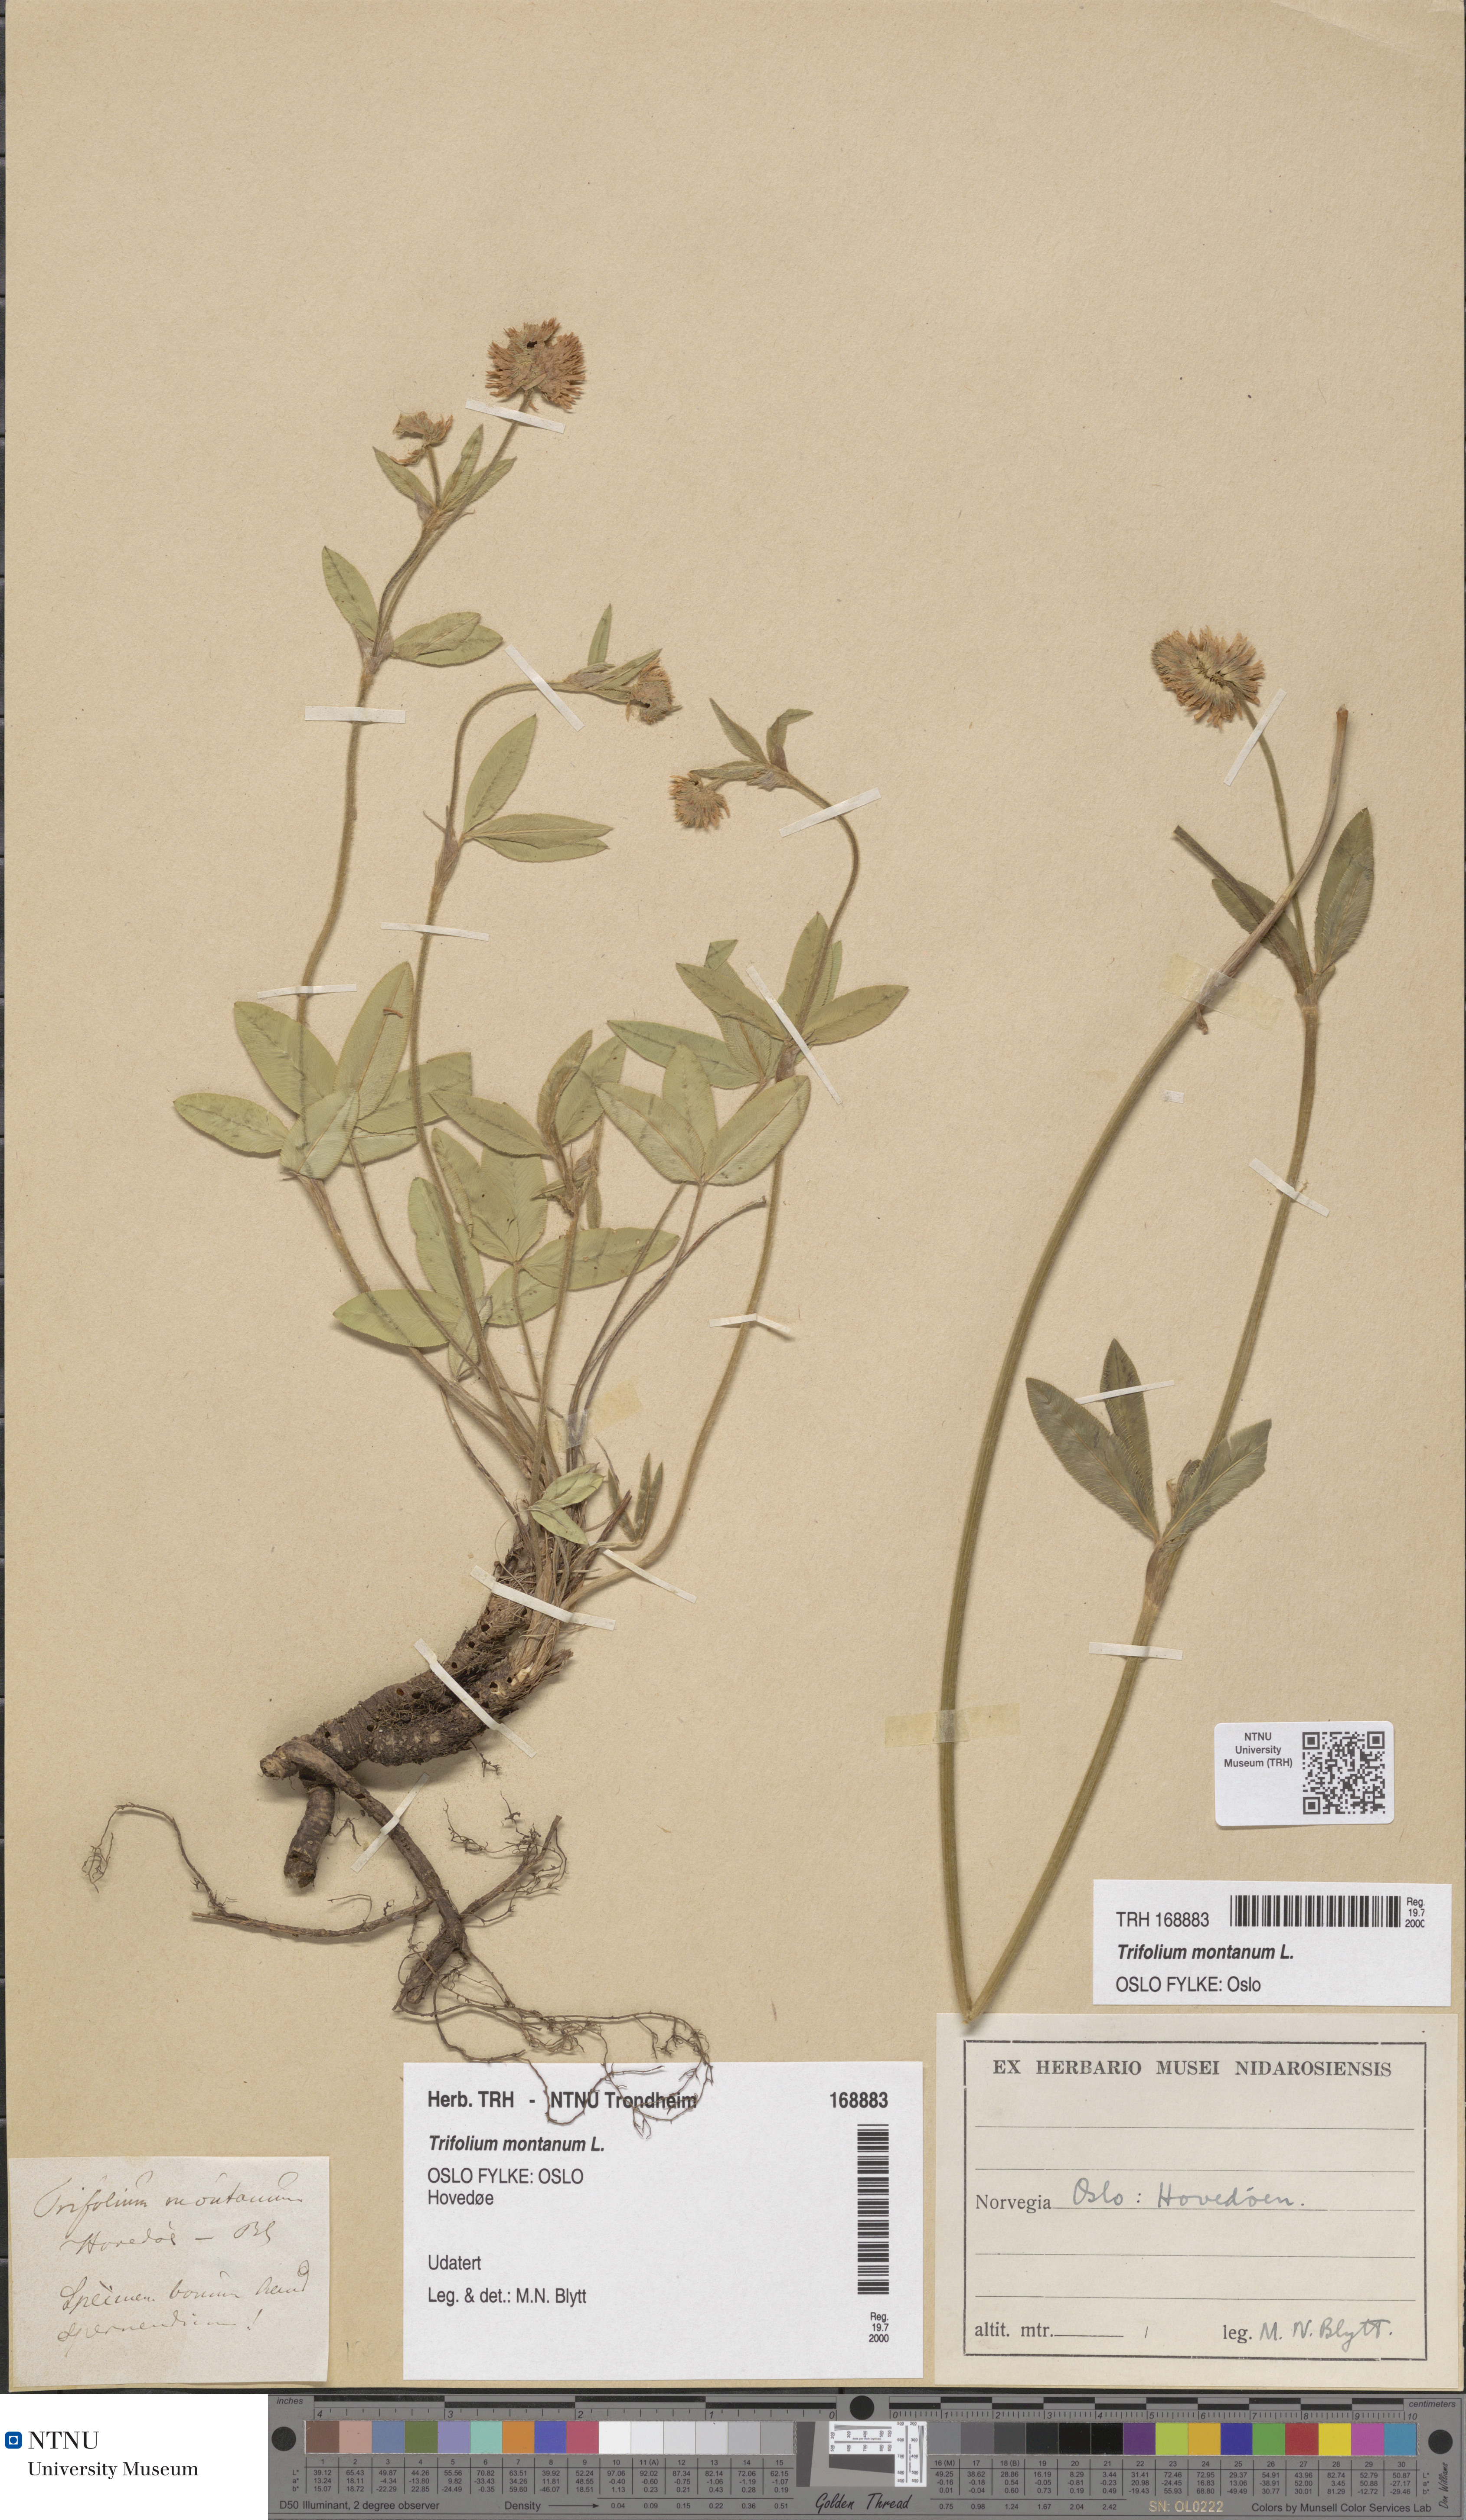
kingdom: Plantae
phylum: Tracheophyta
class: Magnoliopsida
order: Fabales
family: Fabaceae
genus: Trifolium
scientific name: Trifolium montanum
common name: Mountain clover
